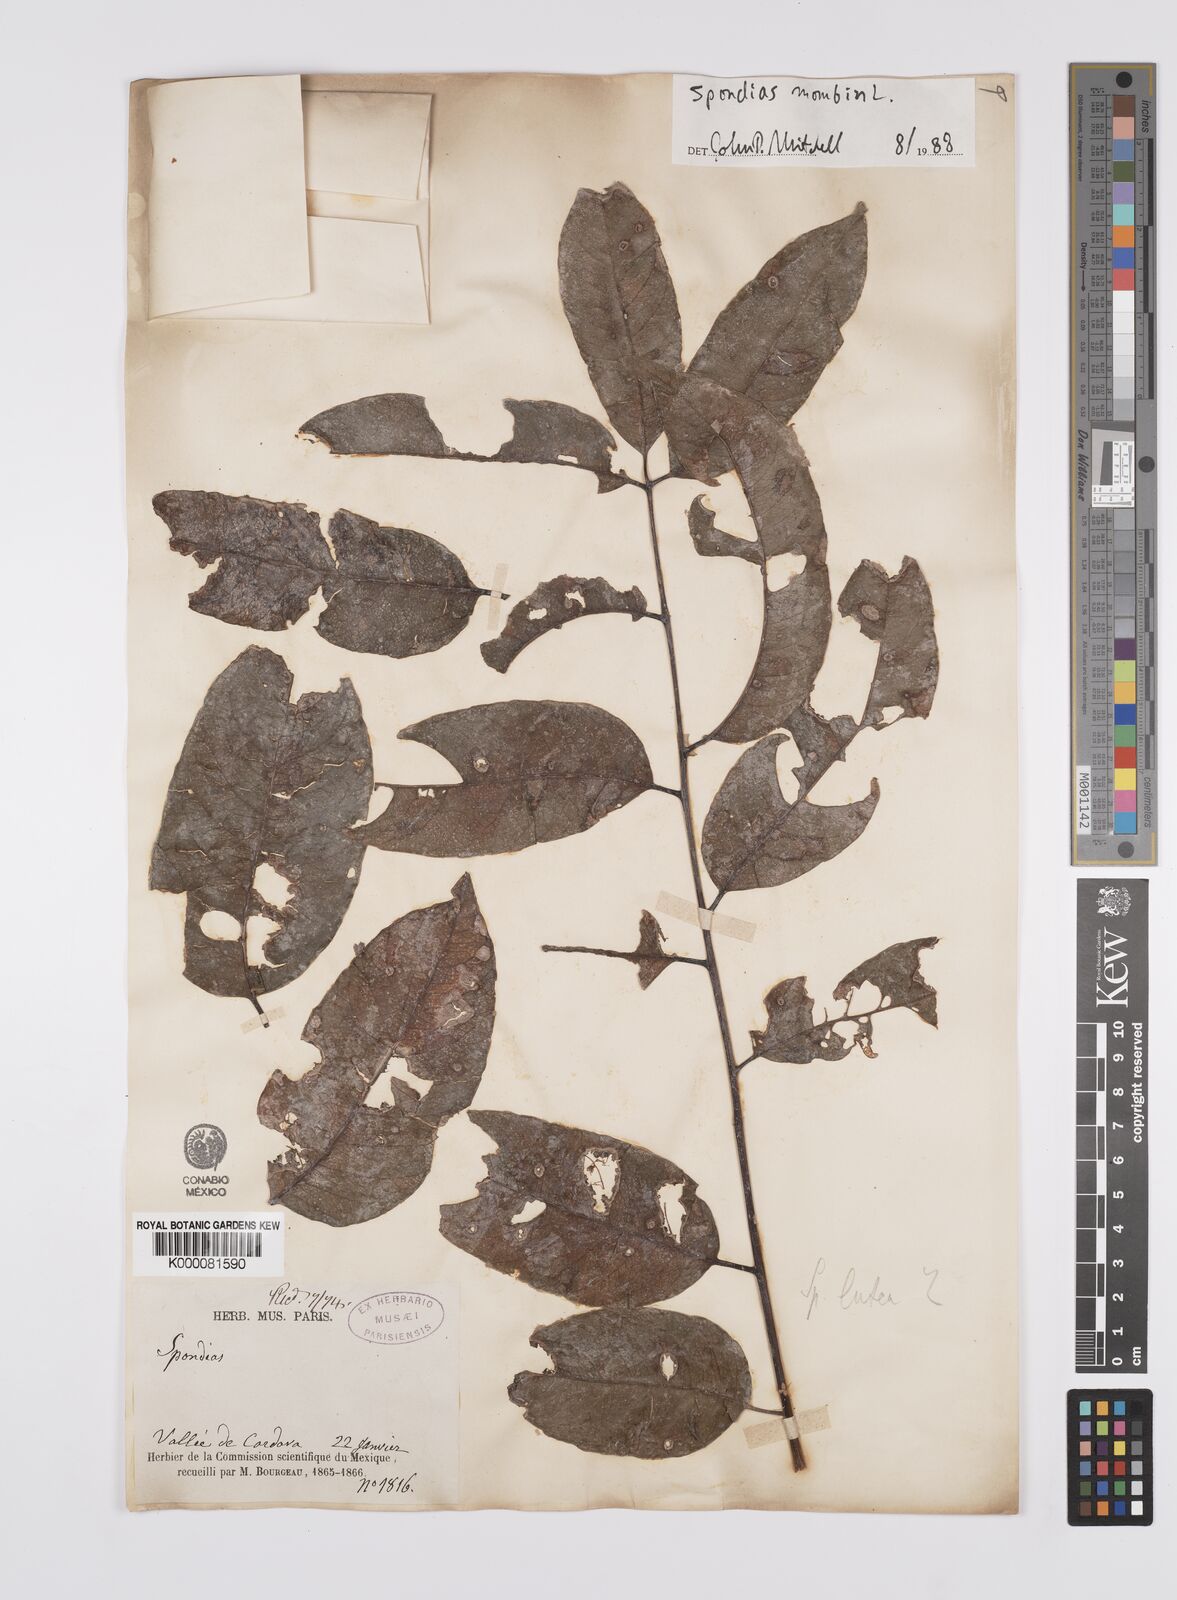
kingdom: Plantae
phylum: Tracheophyta
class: Magnoliopsida
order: Sapindales
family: Anacardiaceae
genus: Spondias
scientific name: Spondias mombin
